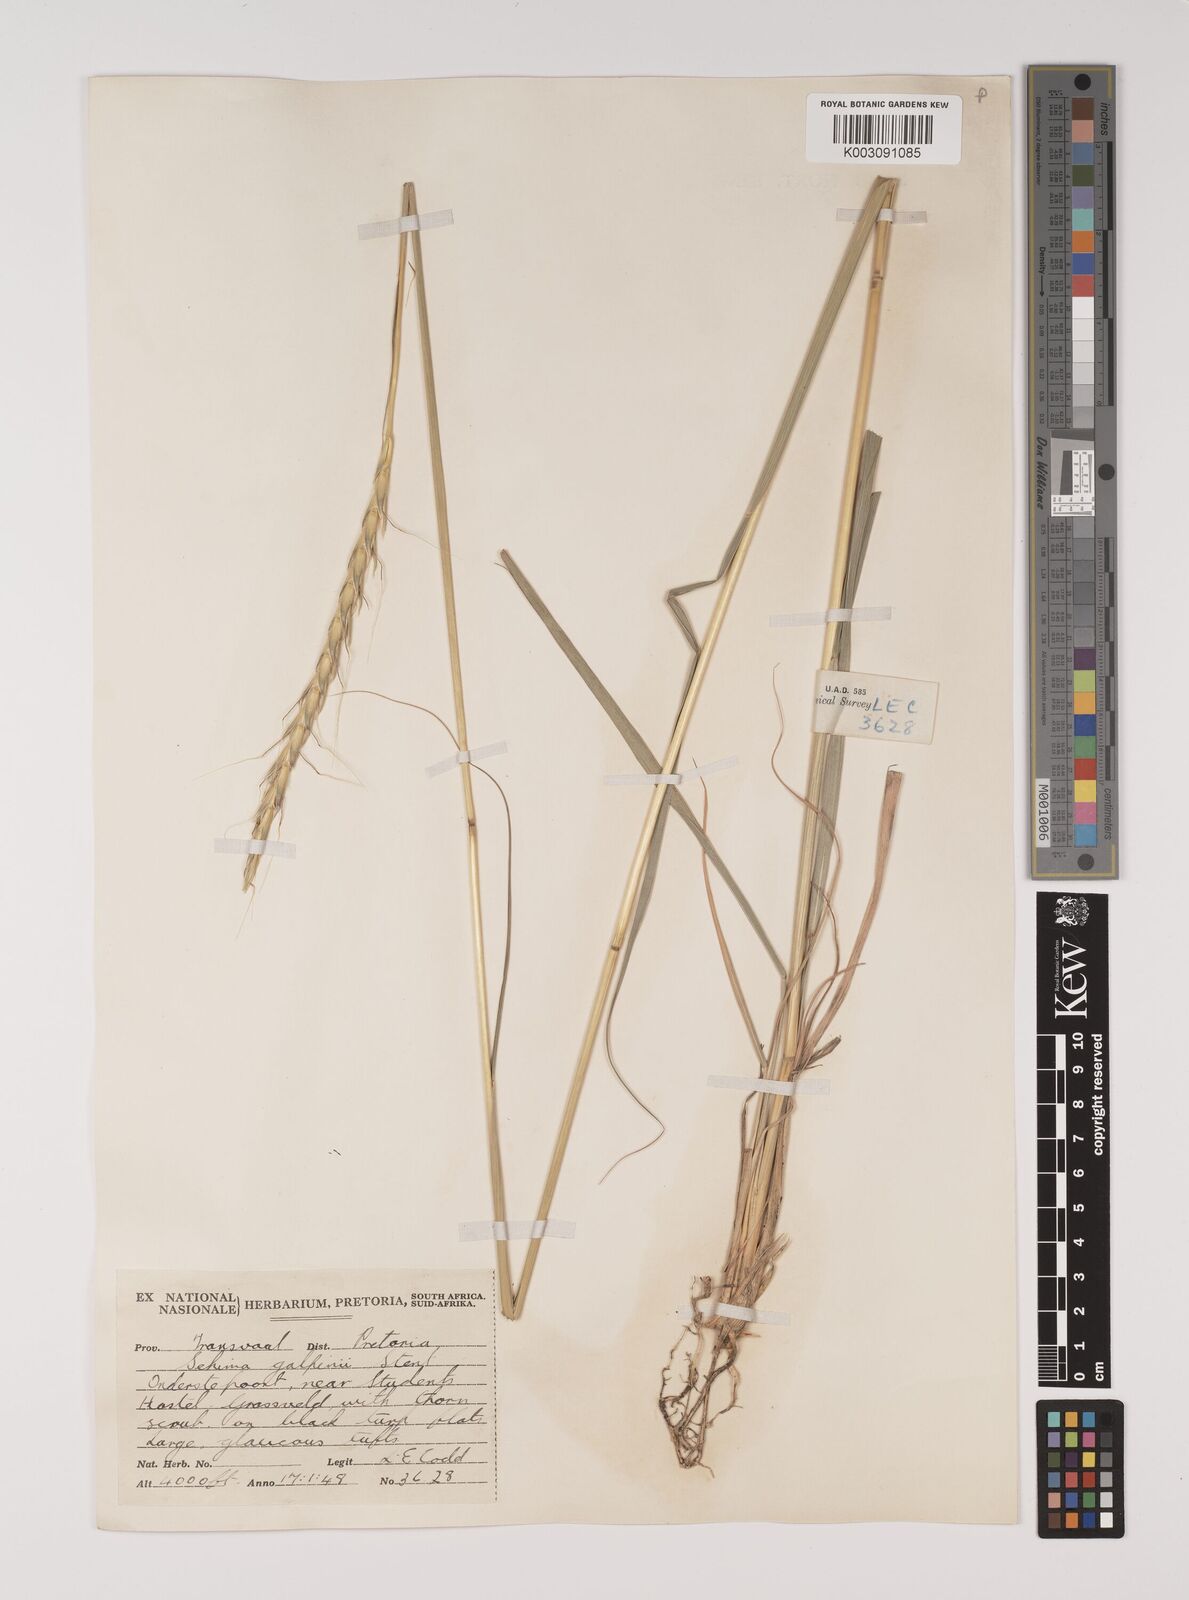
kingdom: Plantae
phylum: Tracheophyta
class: Liliopsida
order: Poales
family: Poaceae
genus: Sehima
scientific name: Sehima galpinii
